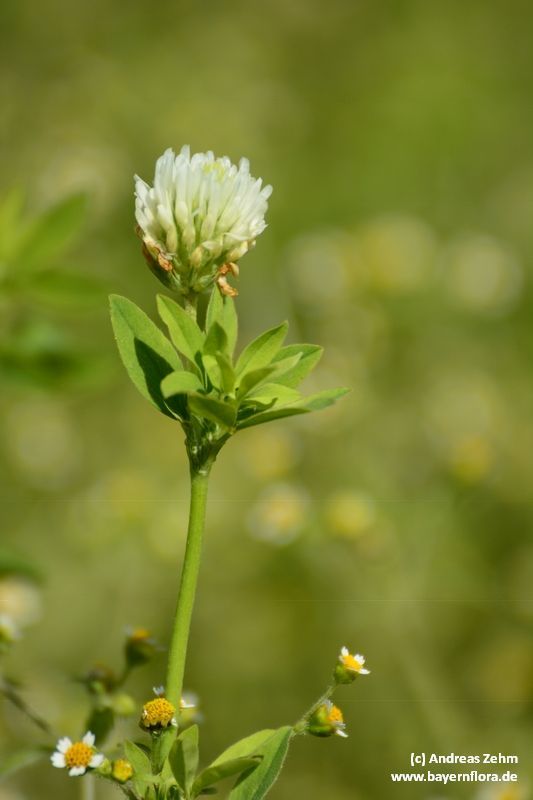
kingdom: Plantae
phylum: Tracheophyta
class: Magnoliopsida
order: Fabales
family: Fabaceae
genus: Trifolium
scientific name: Trifolium alexandrinum
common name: Egyptian clover
